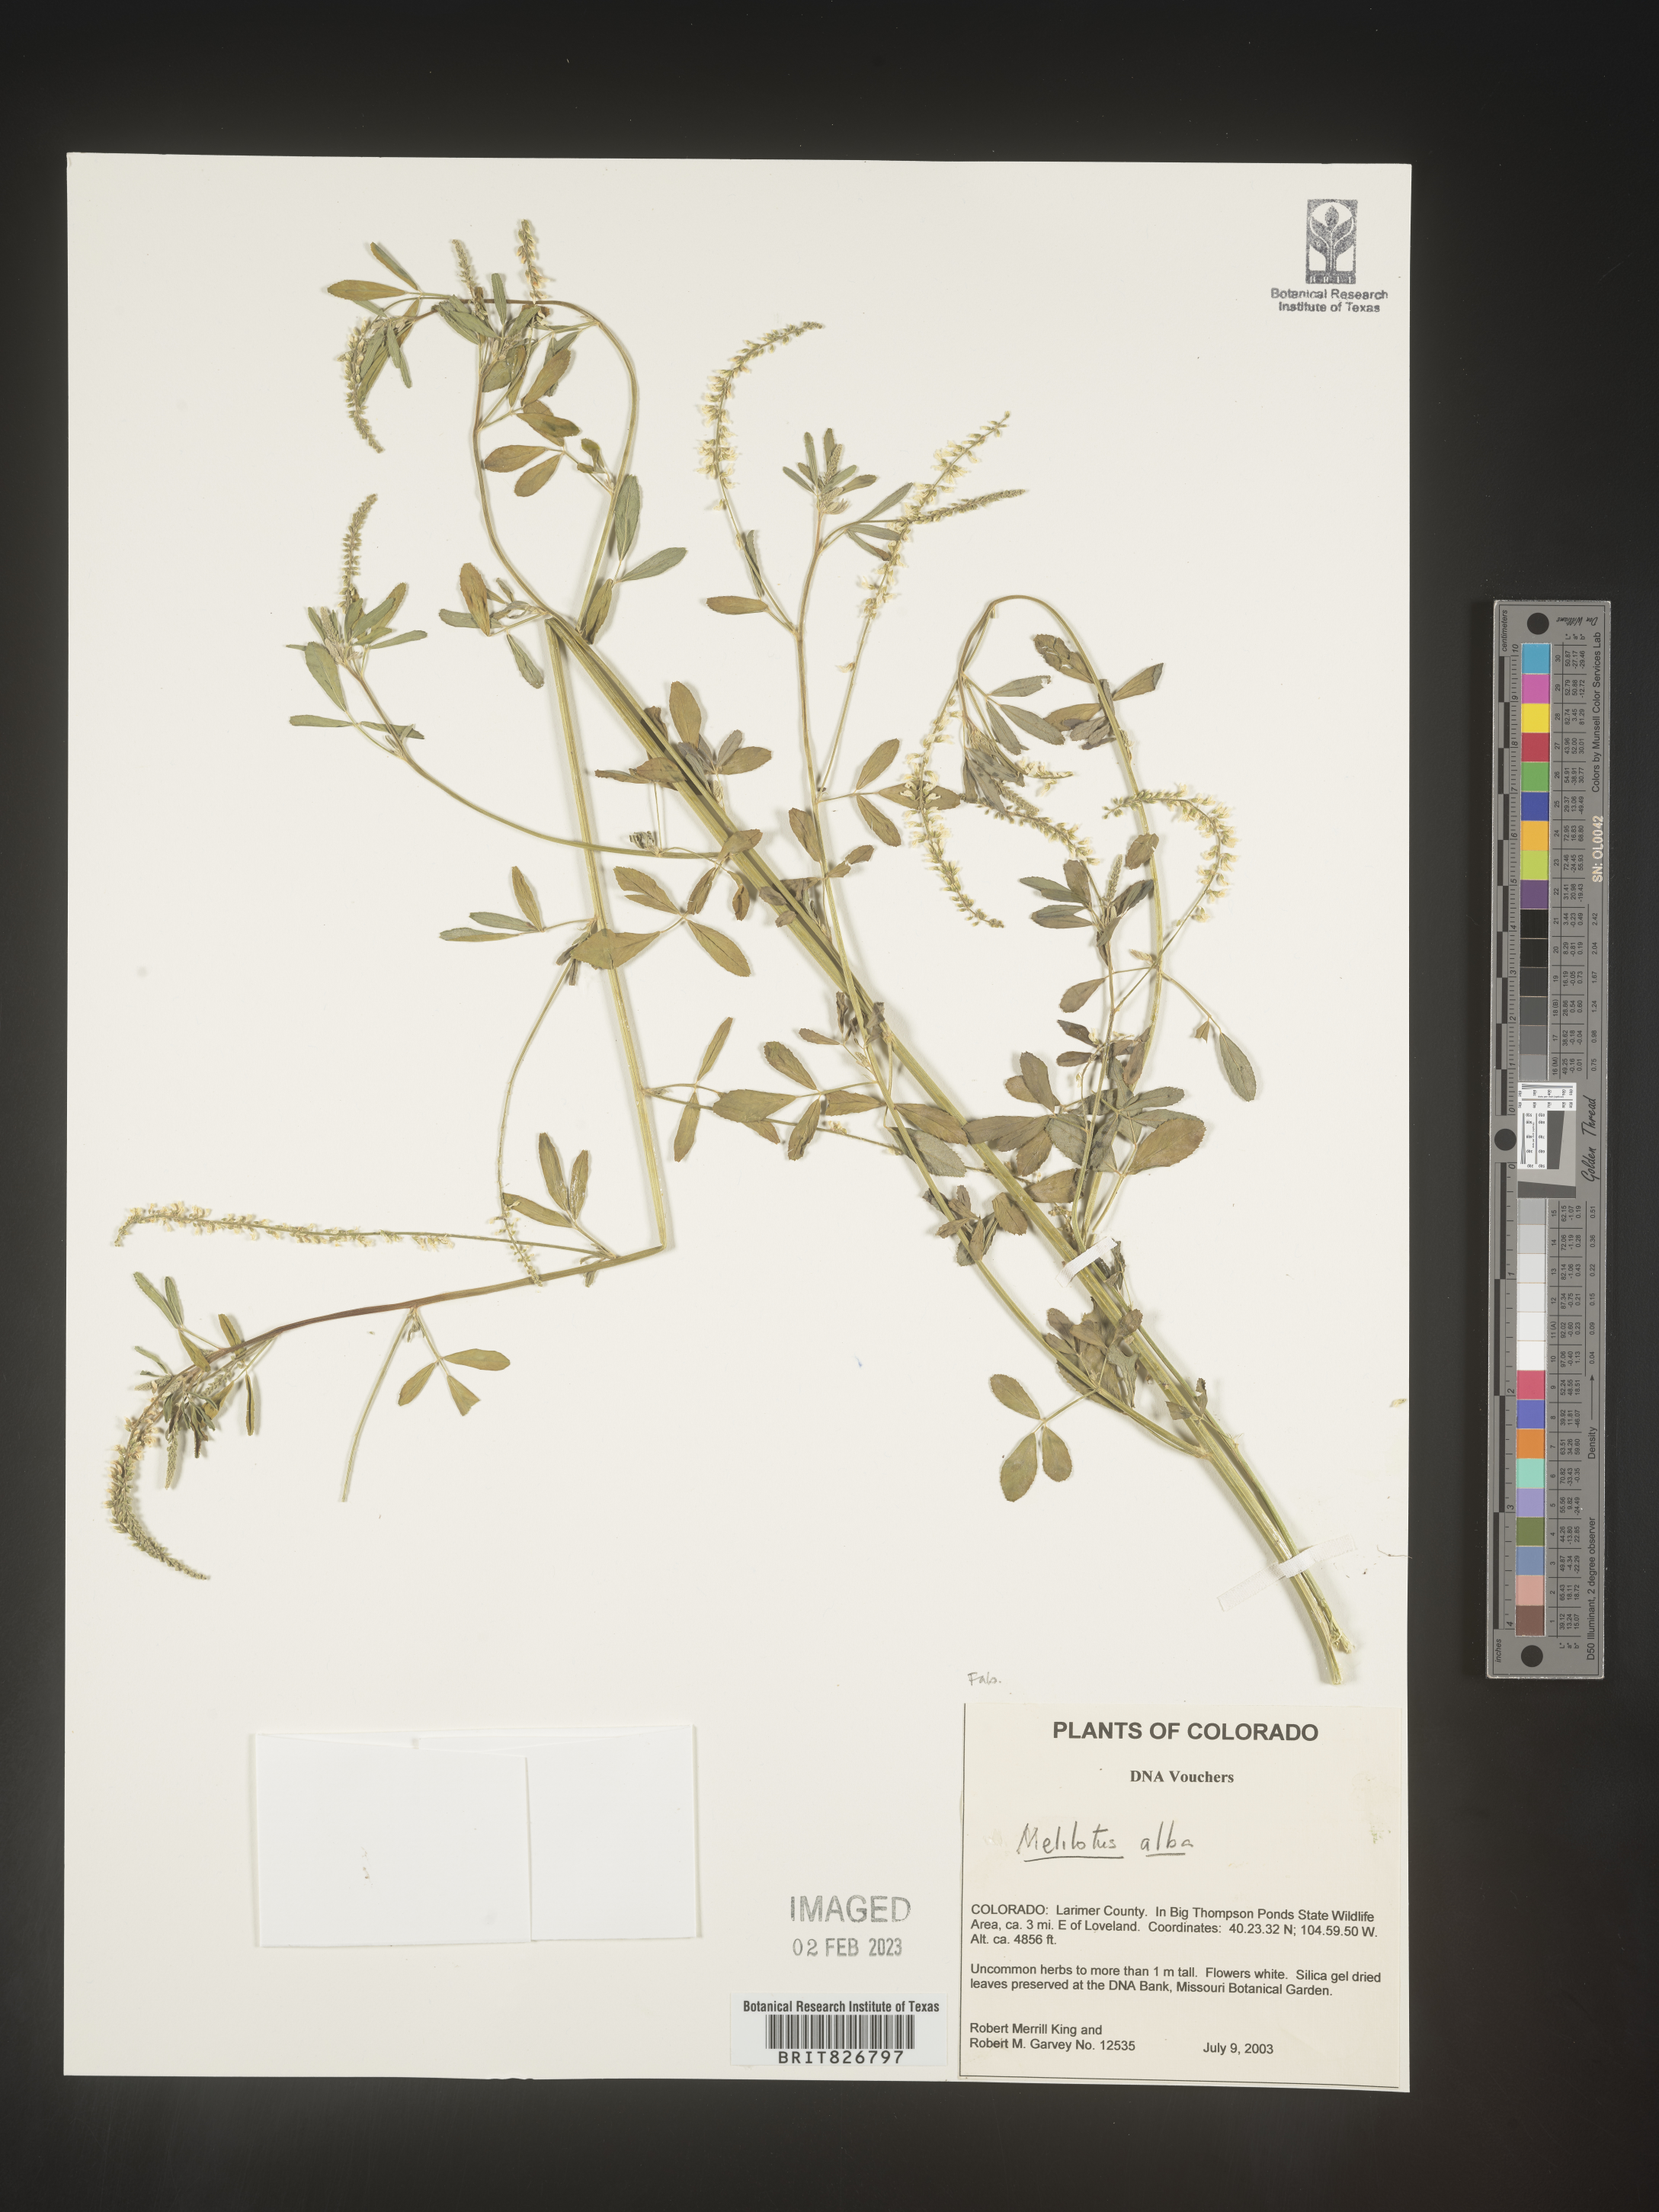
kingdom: Plantae
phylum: Tracheophyta
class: Magnoliopsida
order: Fabales
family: Fabaceae
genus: Melilotus
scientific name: Melilotus albus
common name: White melilot
